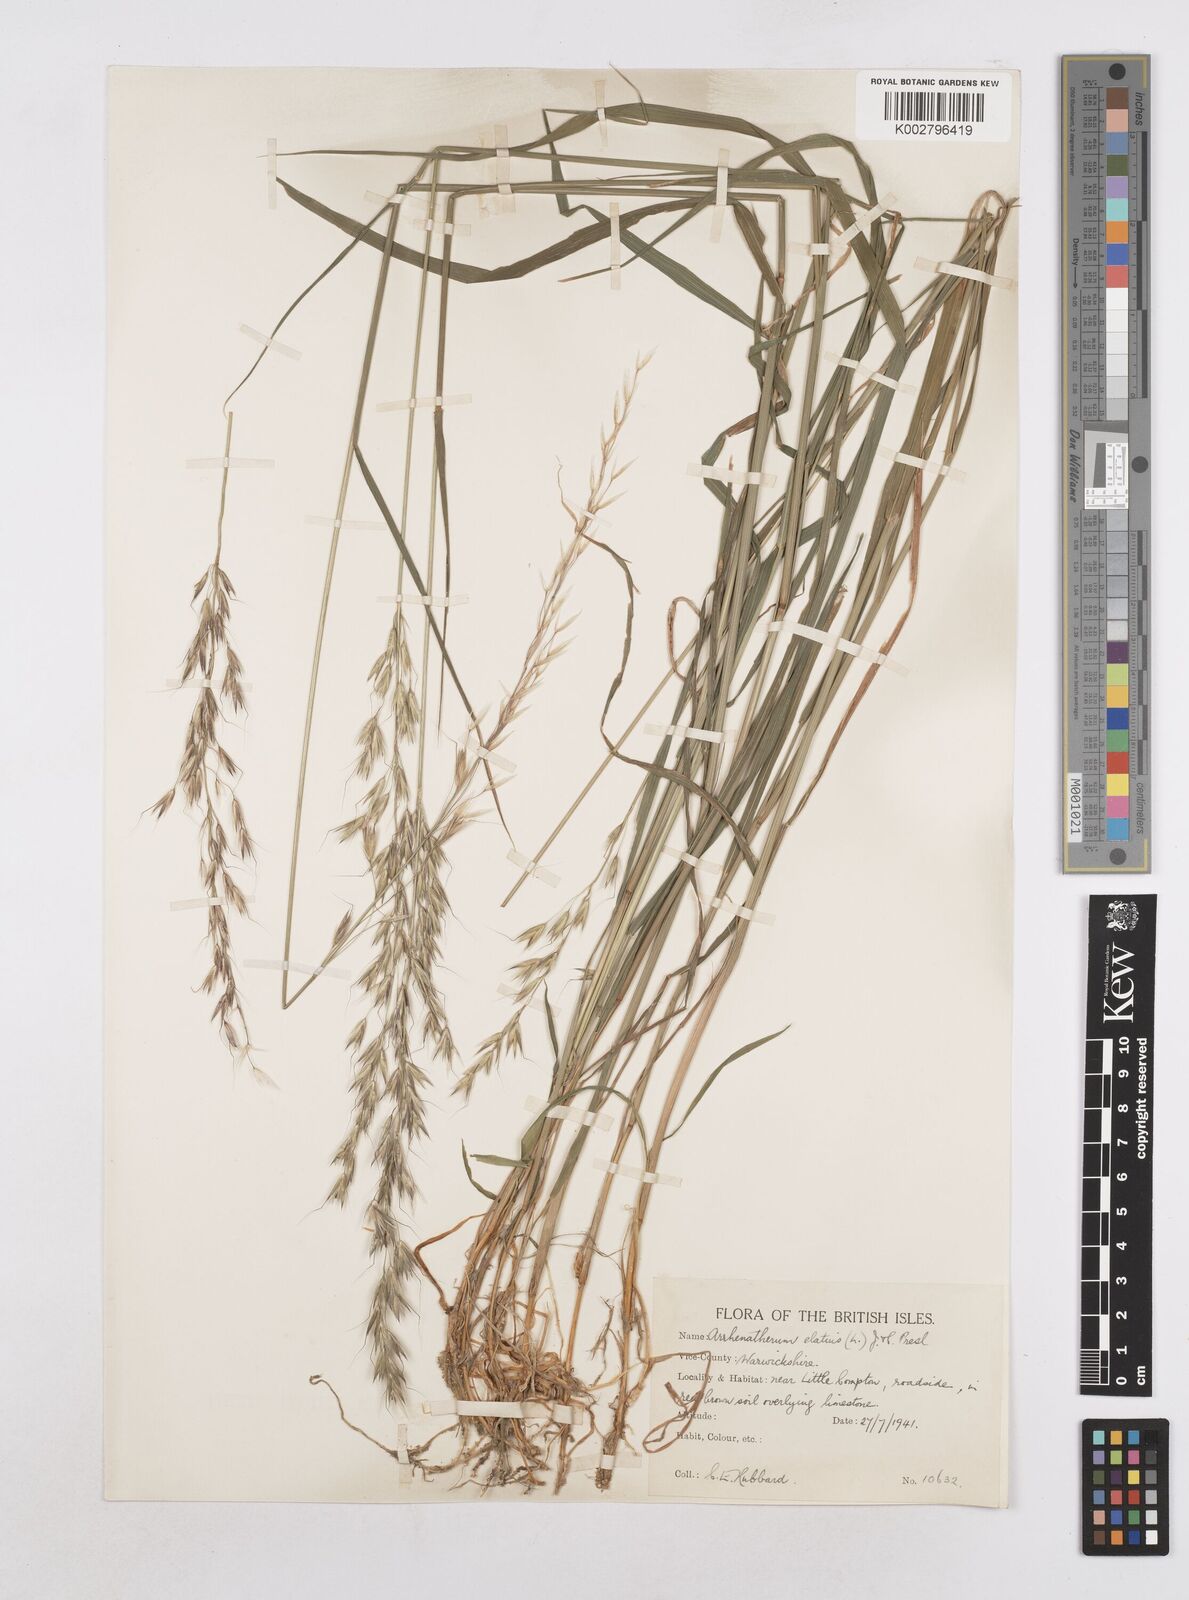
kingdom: Plantae
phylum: Tracheophyta
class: Liliopsida
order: Poales
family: Poaceae
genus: Arrhenatherum
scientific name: Arrhenatherum elatius
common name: Tall oatgrass
